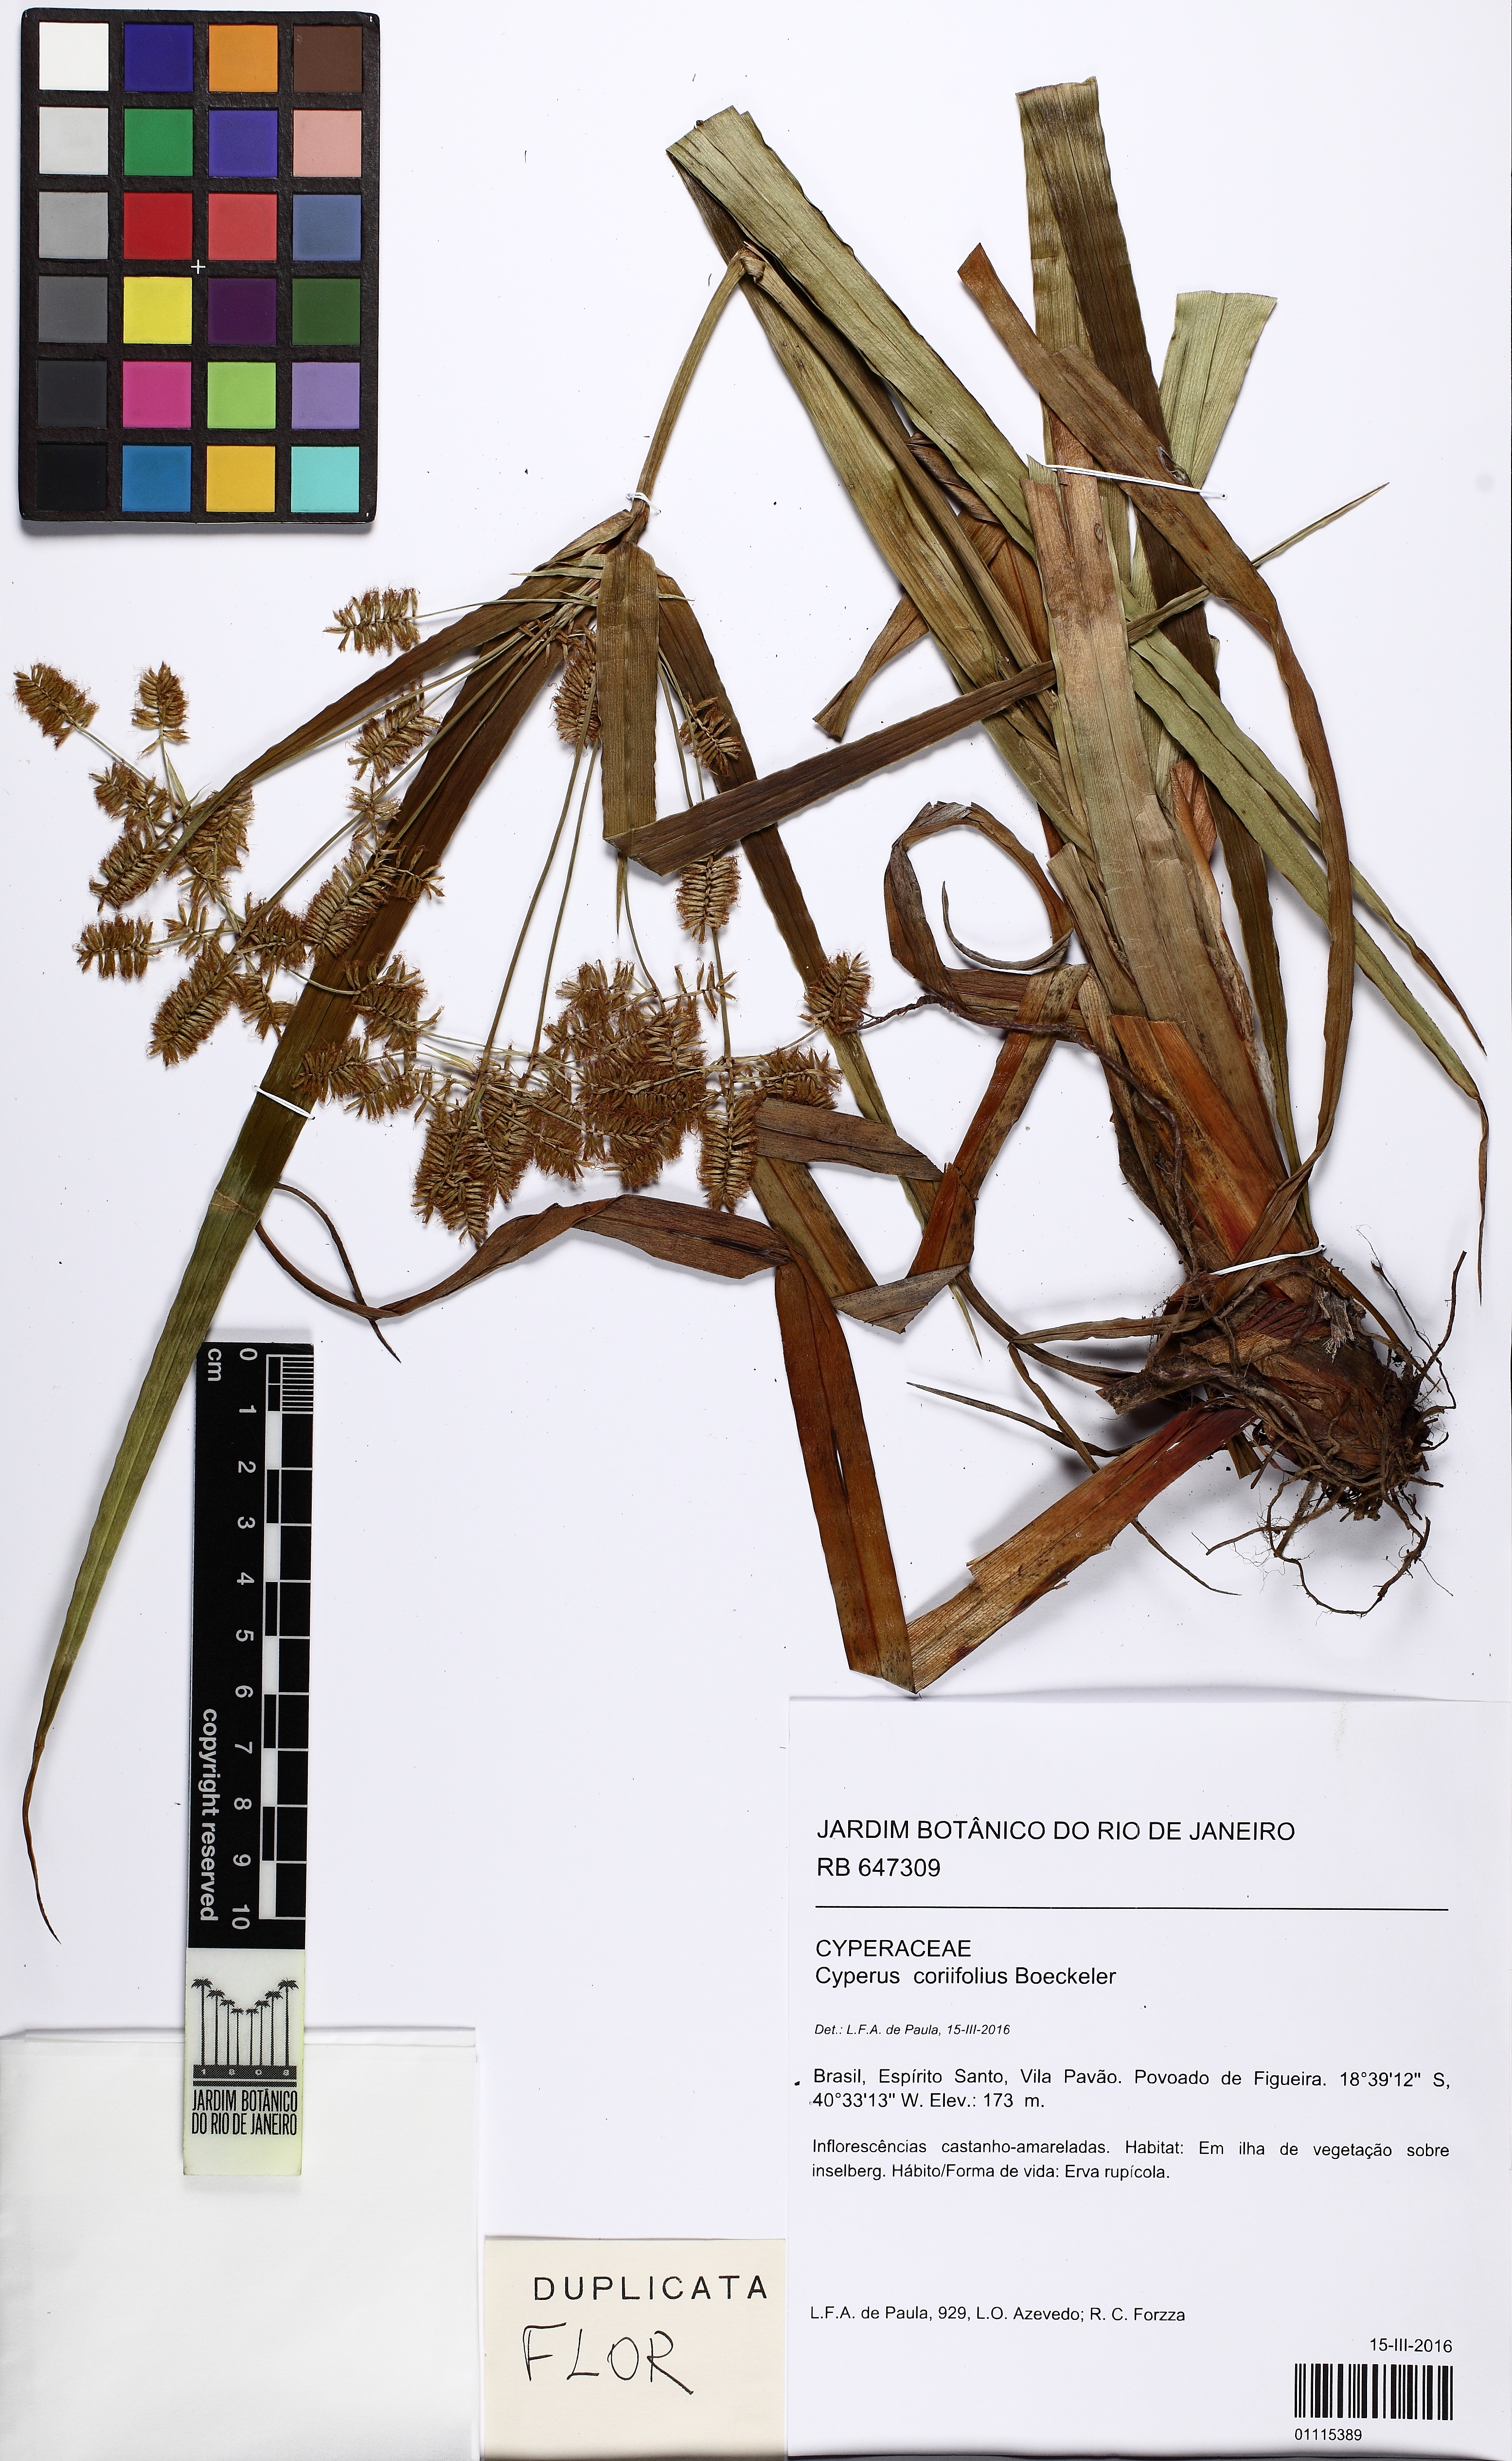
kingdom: Plantae
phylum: Tracheophyta
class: Liliopsida
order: Poales
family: Cyperaceae
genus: Cyperus
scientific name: Cyperus coriifolius
